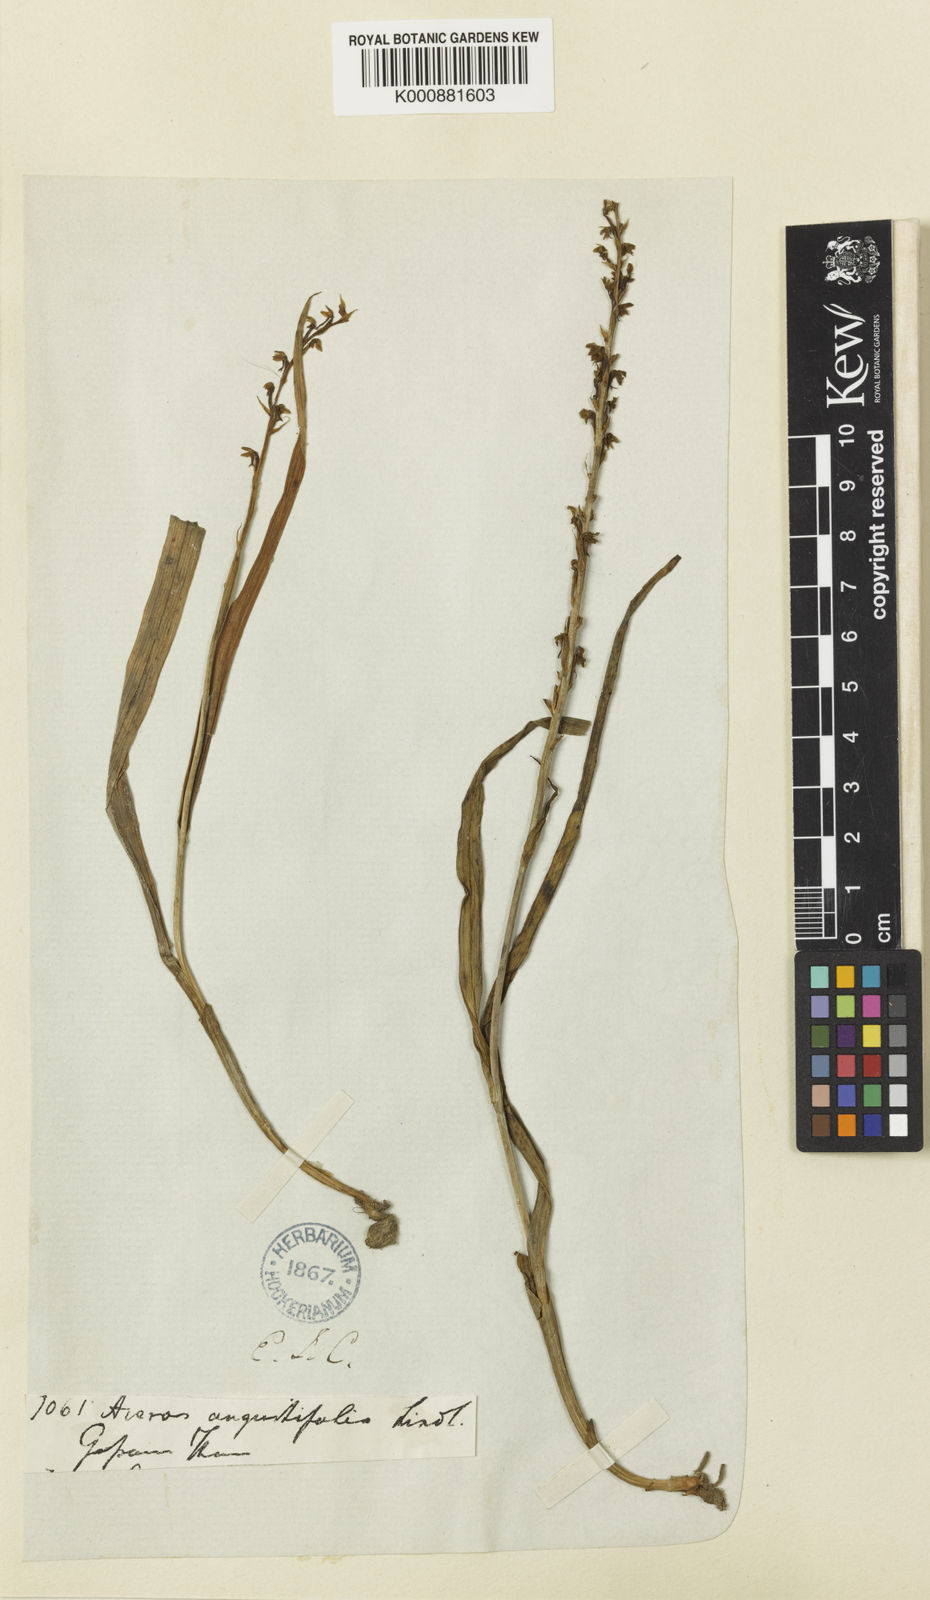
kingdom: Plantae
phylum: Tracheophyta
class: Liliopsida
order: Asparagales
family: Orchidaceae
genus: Herminium
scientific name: Herminium lanceum
